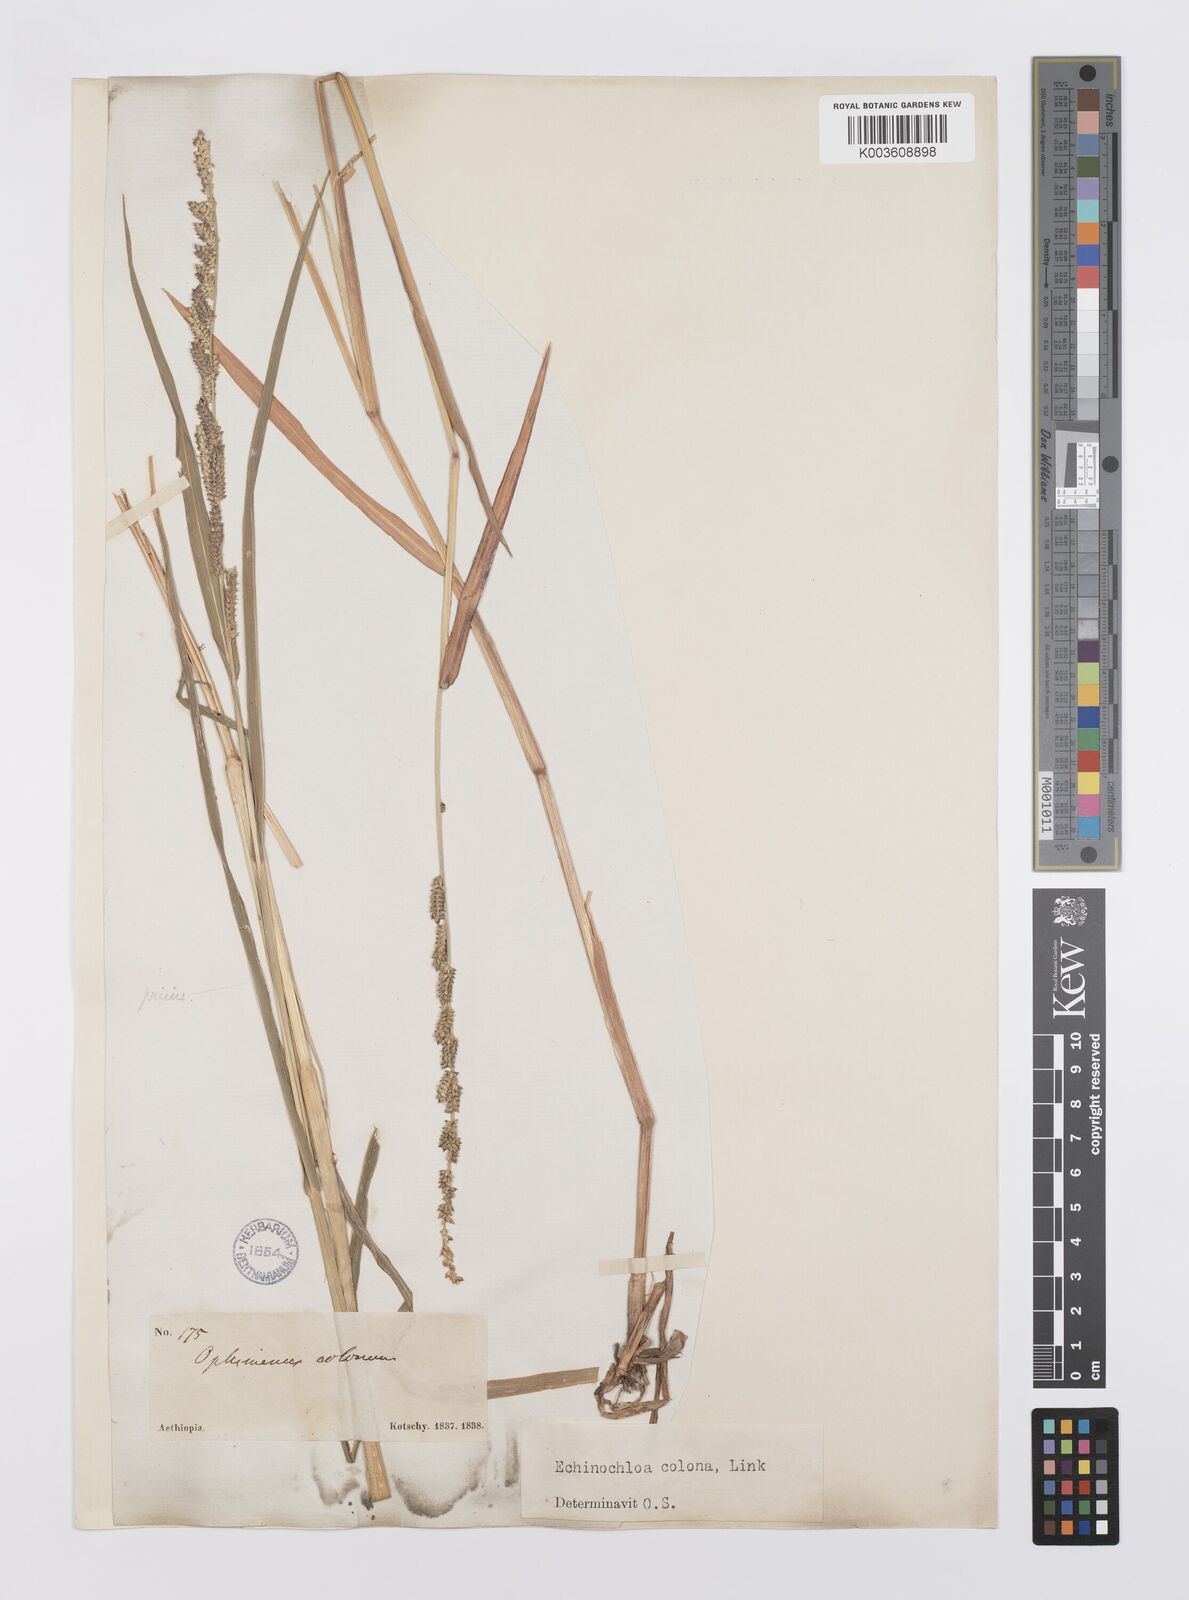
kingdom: Plantae
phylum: Tracheophyta
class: Liliopsida
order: Poales
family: Poaceae
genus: Echinochloa
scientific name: Echinochloa colonum
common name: Jungle rice
